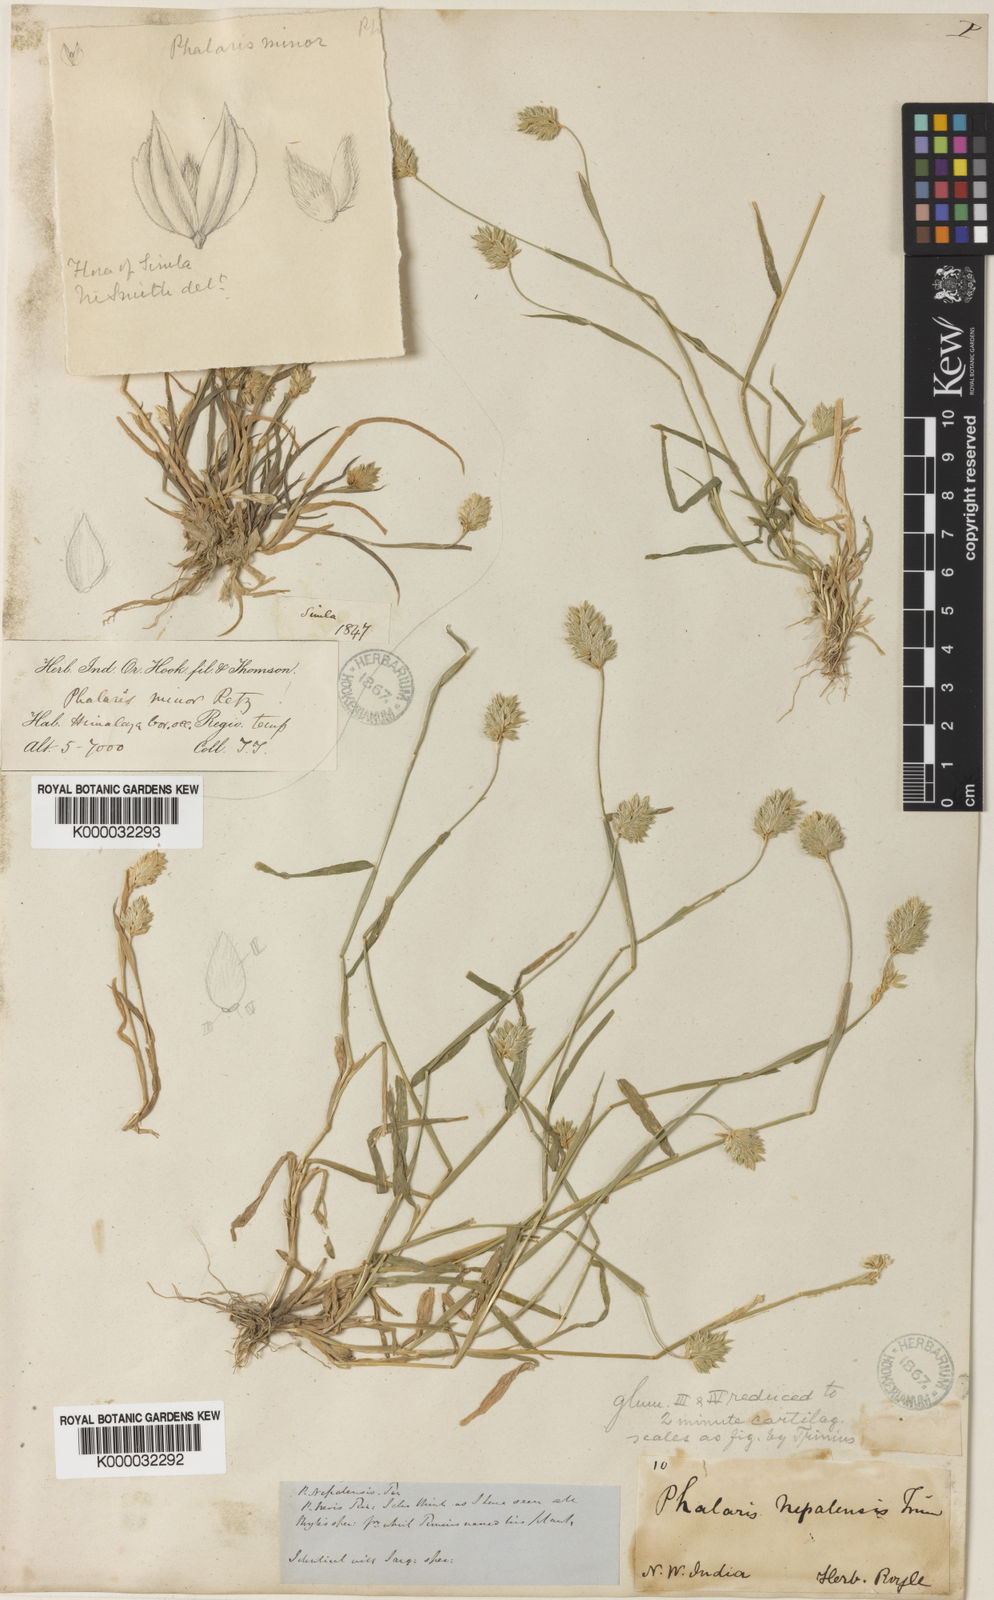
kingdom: Plantae
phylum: Tracheophyta
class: Liliopsida
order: Poales
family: Poaceae
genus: Phalaris
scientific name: Phalaris minor
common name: Littleseed canarygrass
